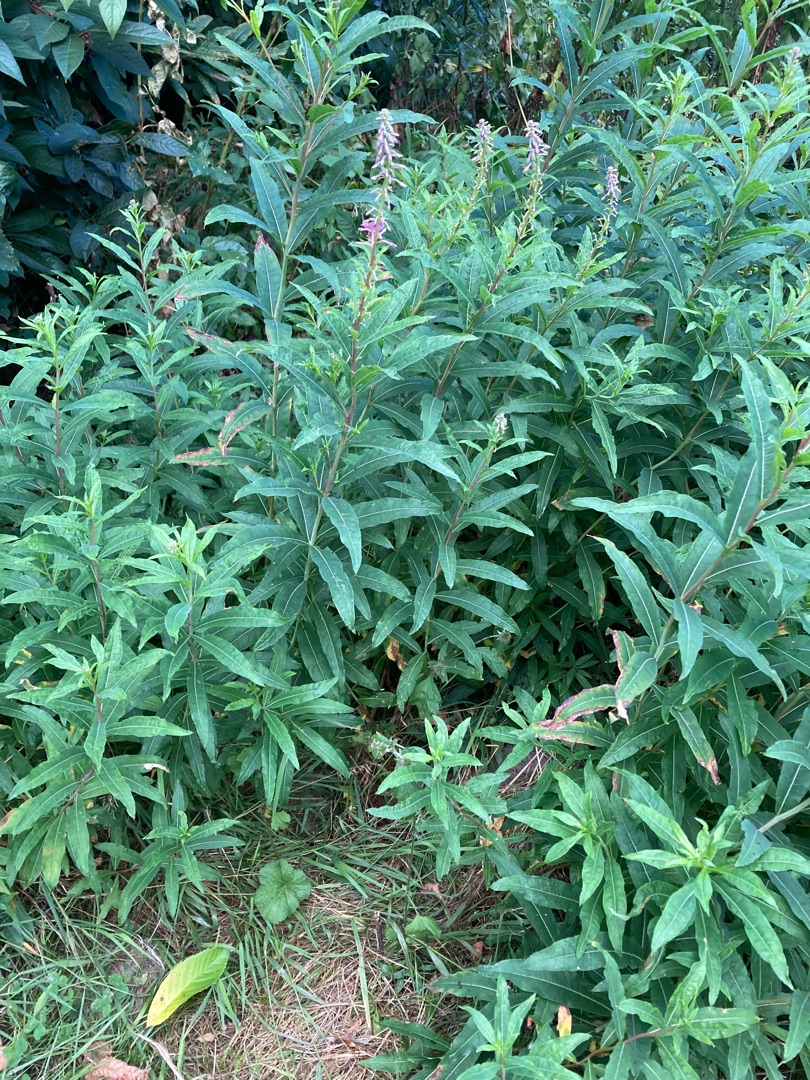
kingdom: Plantae
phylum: Tracheophyta
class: Magnoliopsida
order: Myrtales
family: Onagraceae
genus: Chamaenerion
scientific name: Chamaenerion angustifolium
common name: Gederams
